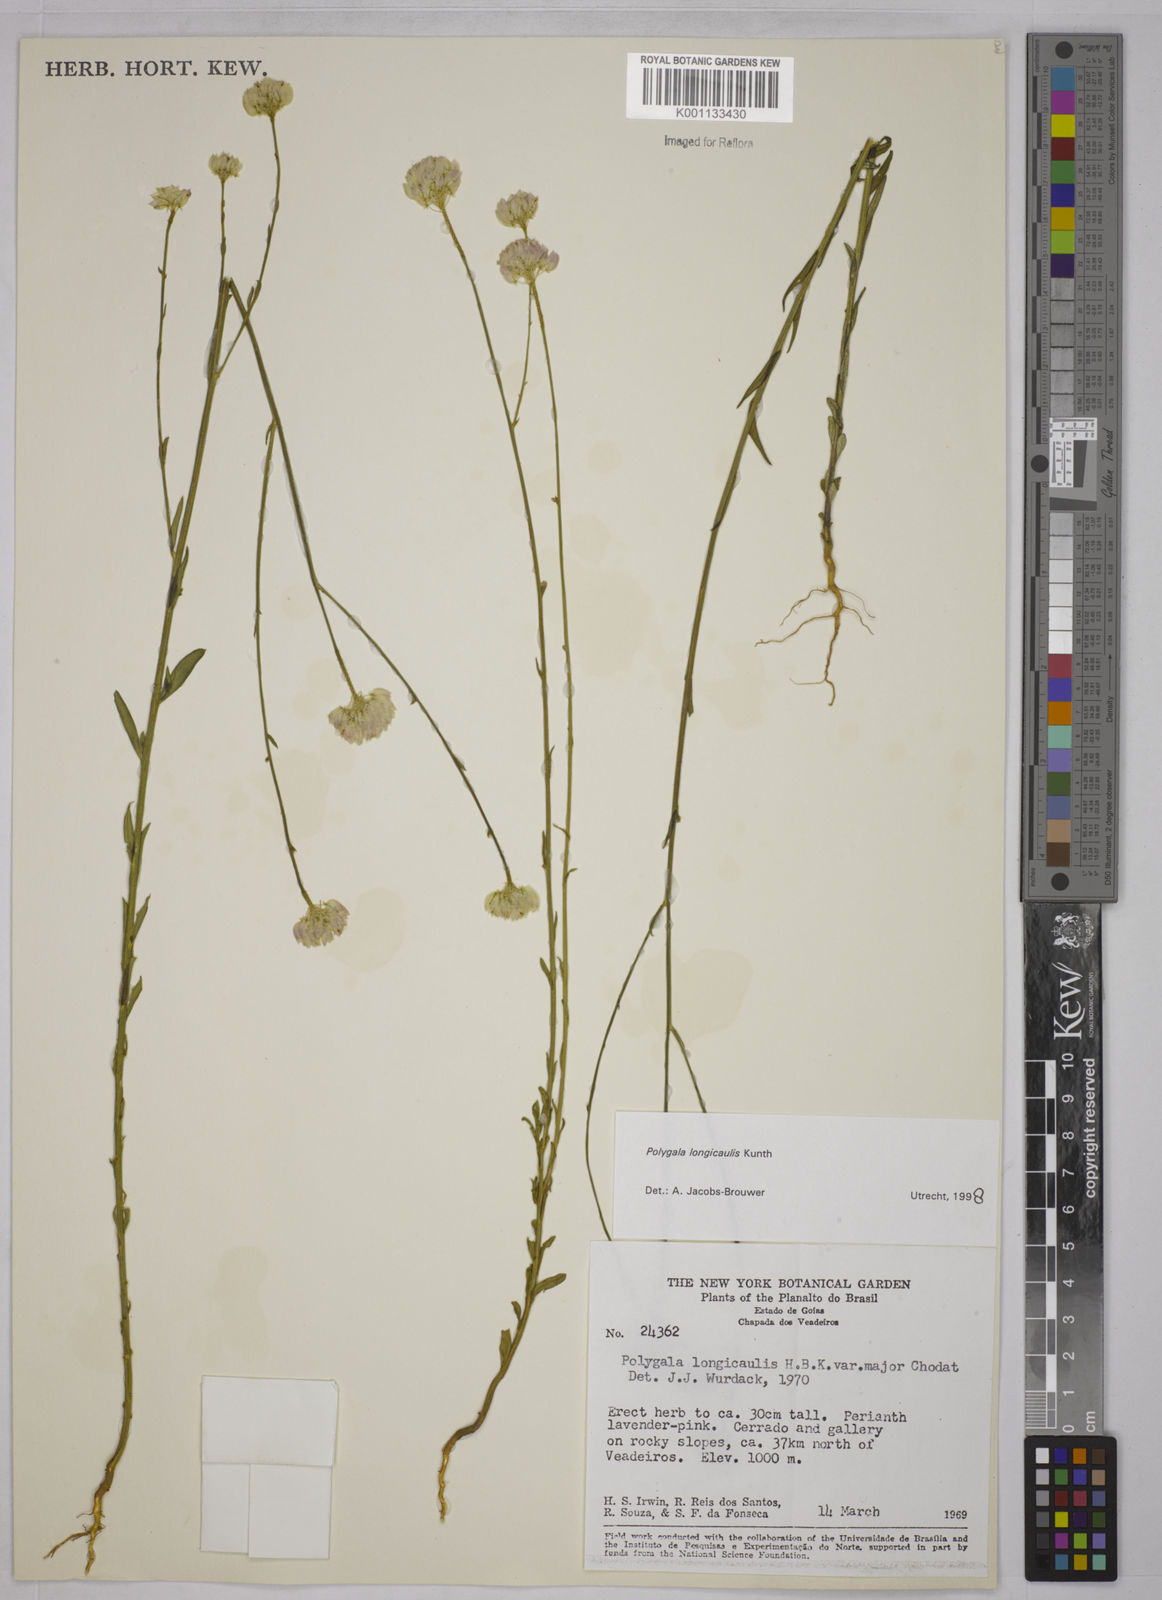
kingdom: Plantae
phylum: Tracheophyta
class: Magnoliopsida
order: Fabales
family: Polygalaceae
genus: Polygala
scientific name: Polygala longicaulis
